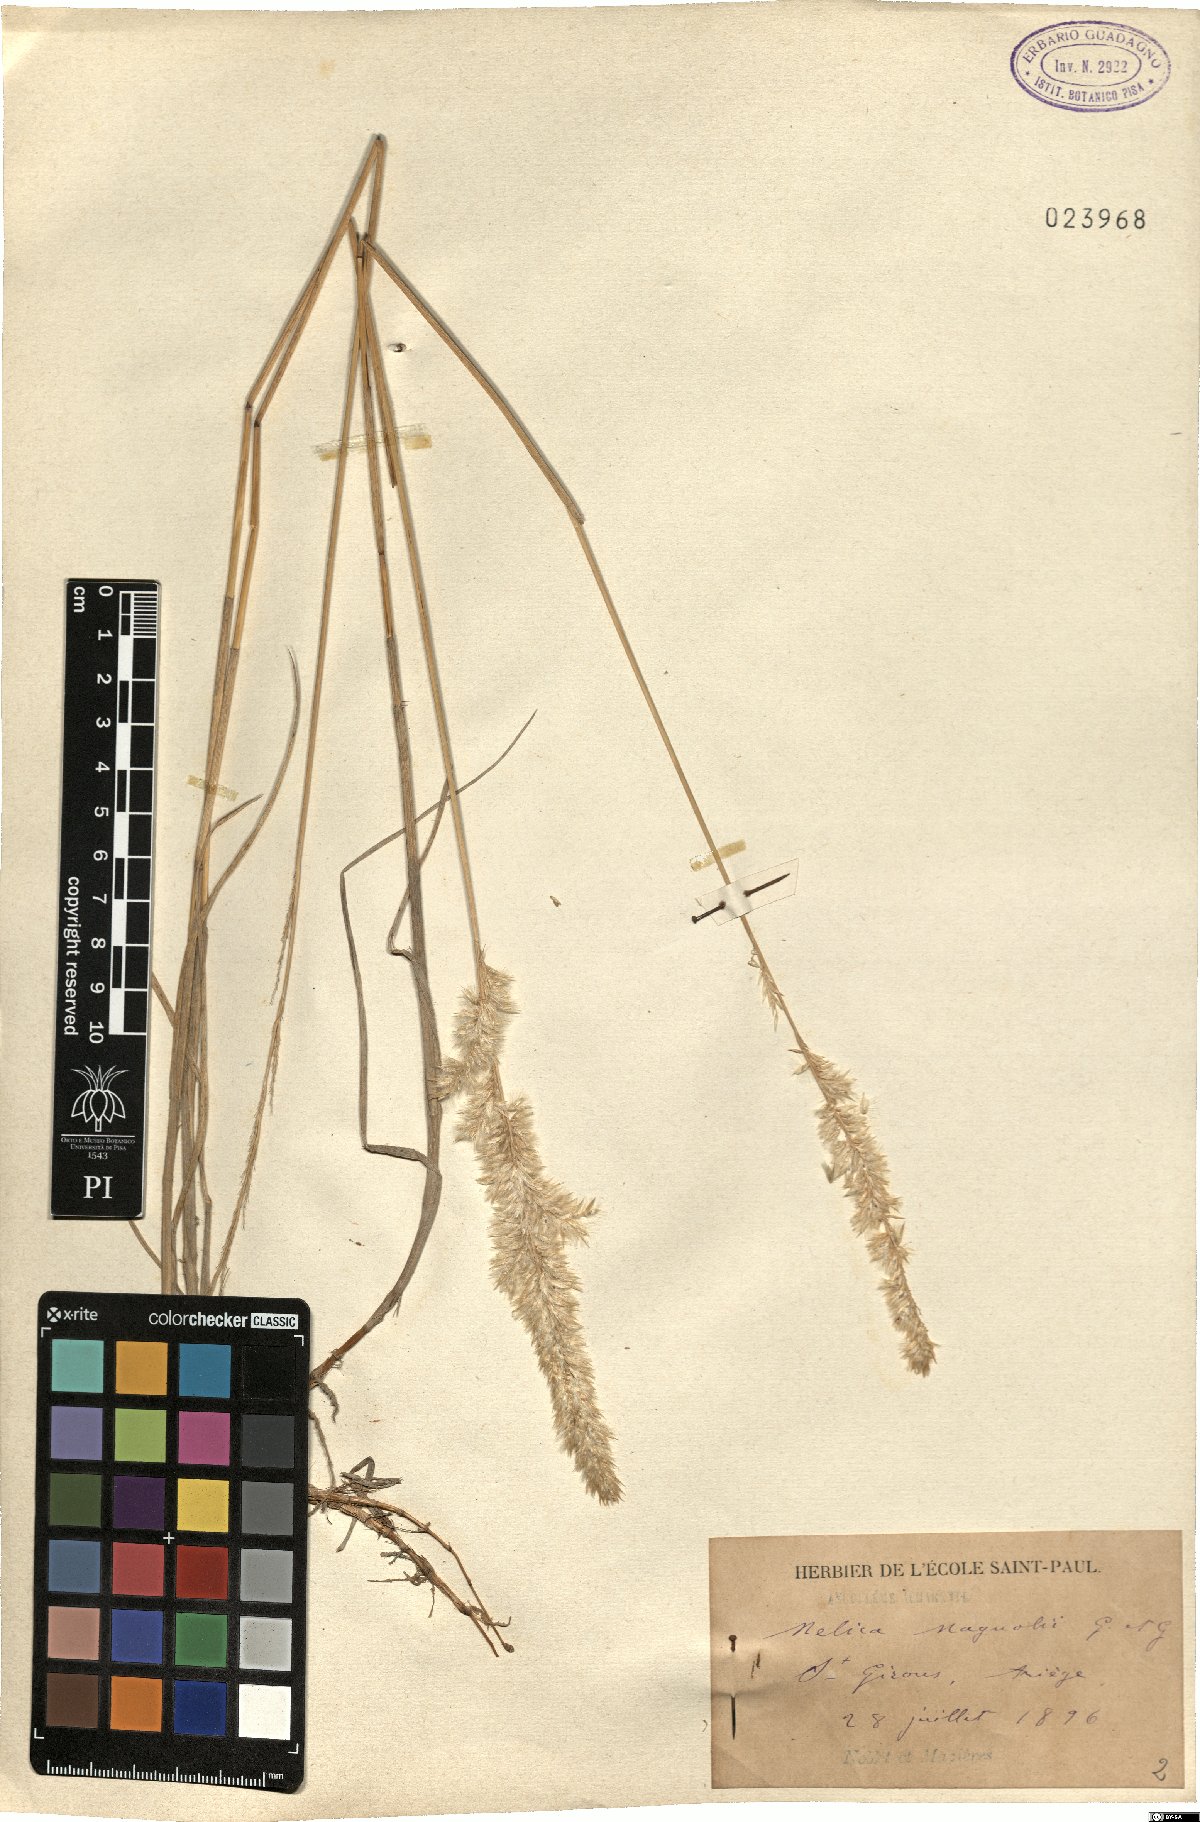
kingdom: Plantae
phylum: Tracheophyta
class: Liliopsida
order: Poales
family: Poaceae
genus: Melica
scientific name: Melica ciliata
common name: Hairy melicgrass
